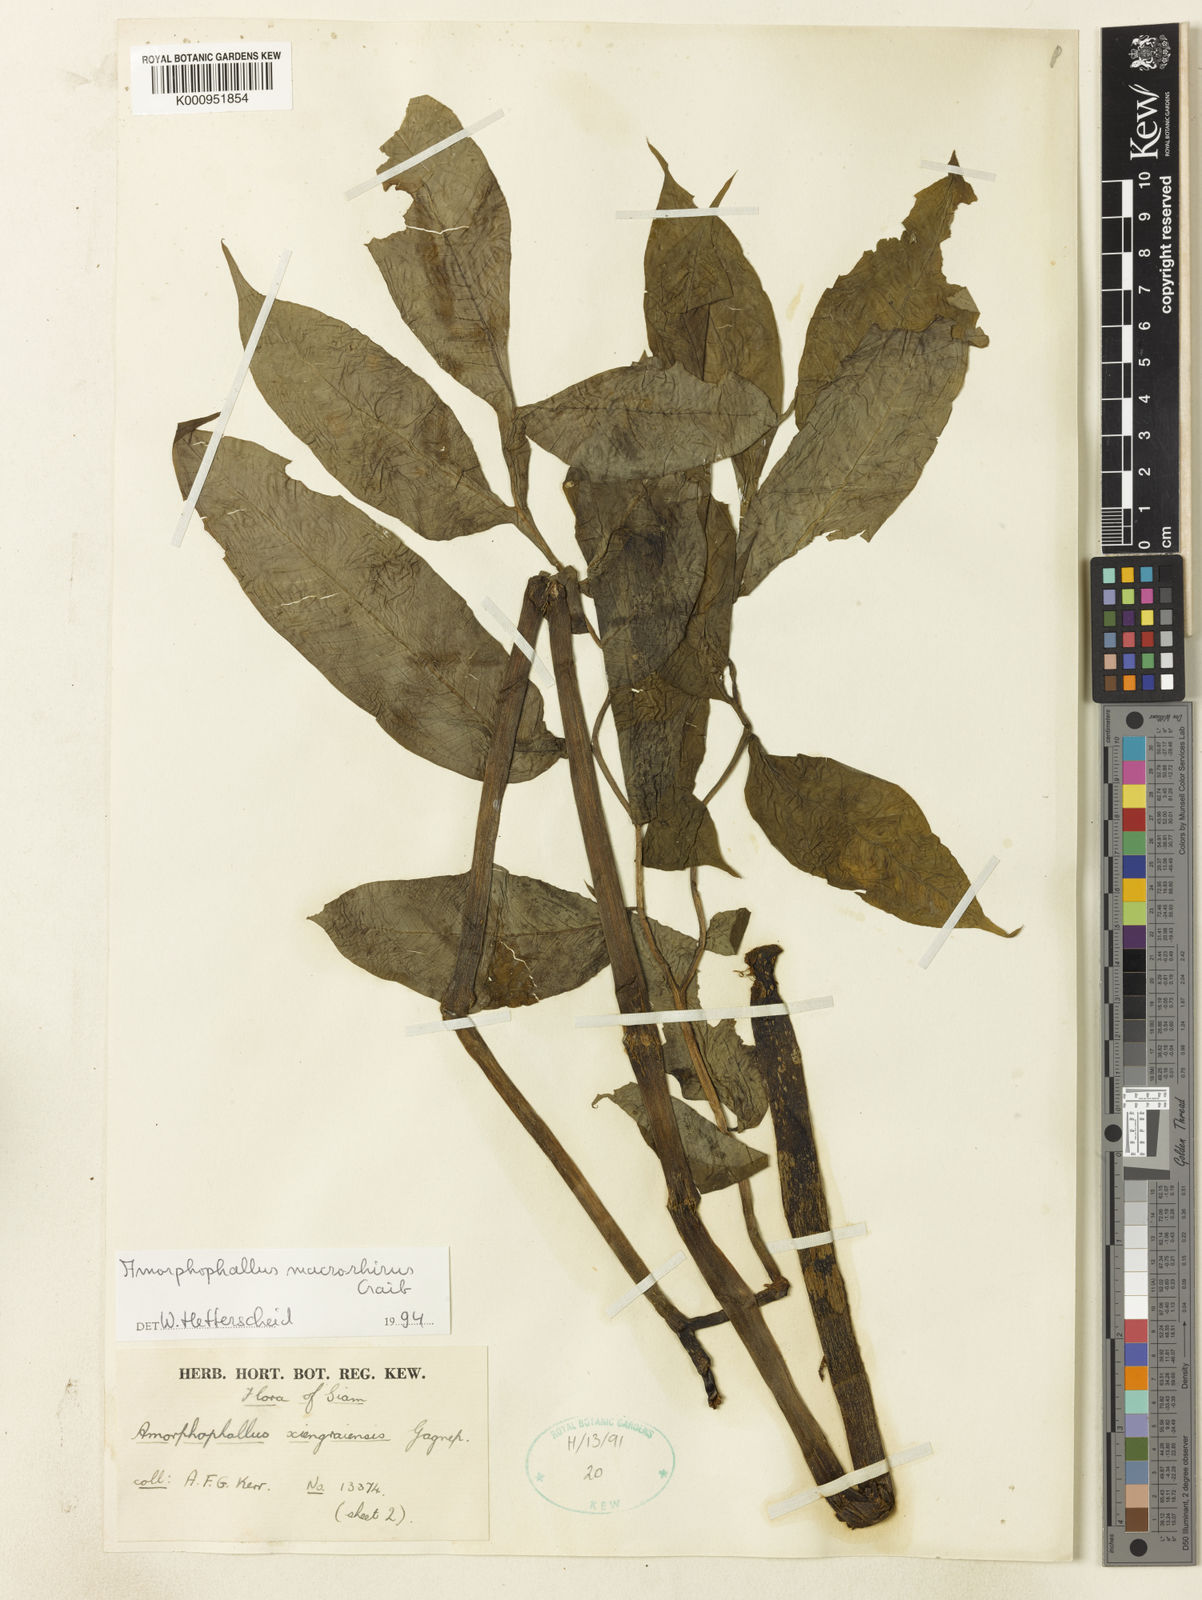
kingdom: Plantae
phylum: Tracheophyta
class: Liliopsida
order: Alismatales
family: Araceae
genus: Amorphophallus
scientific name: Amorphophallus macrorhizus
